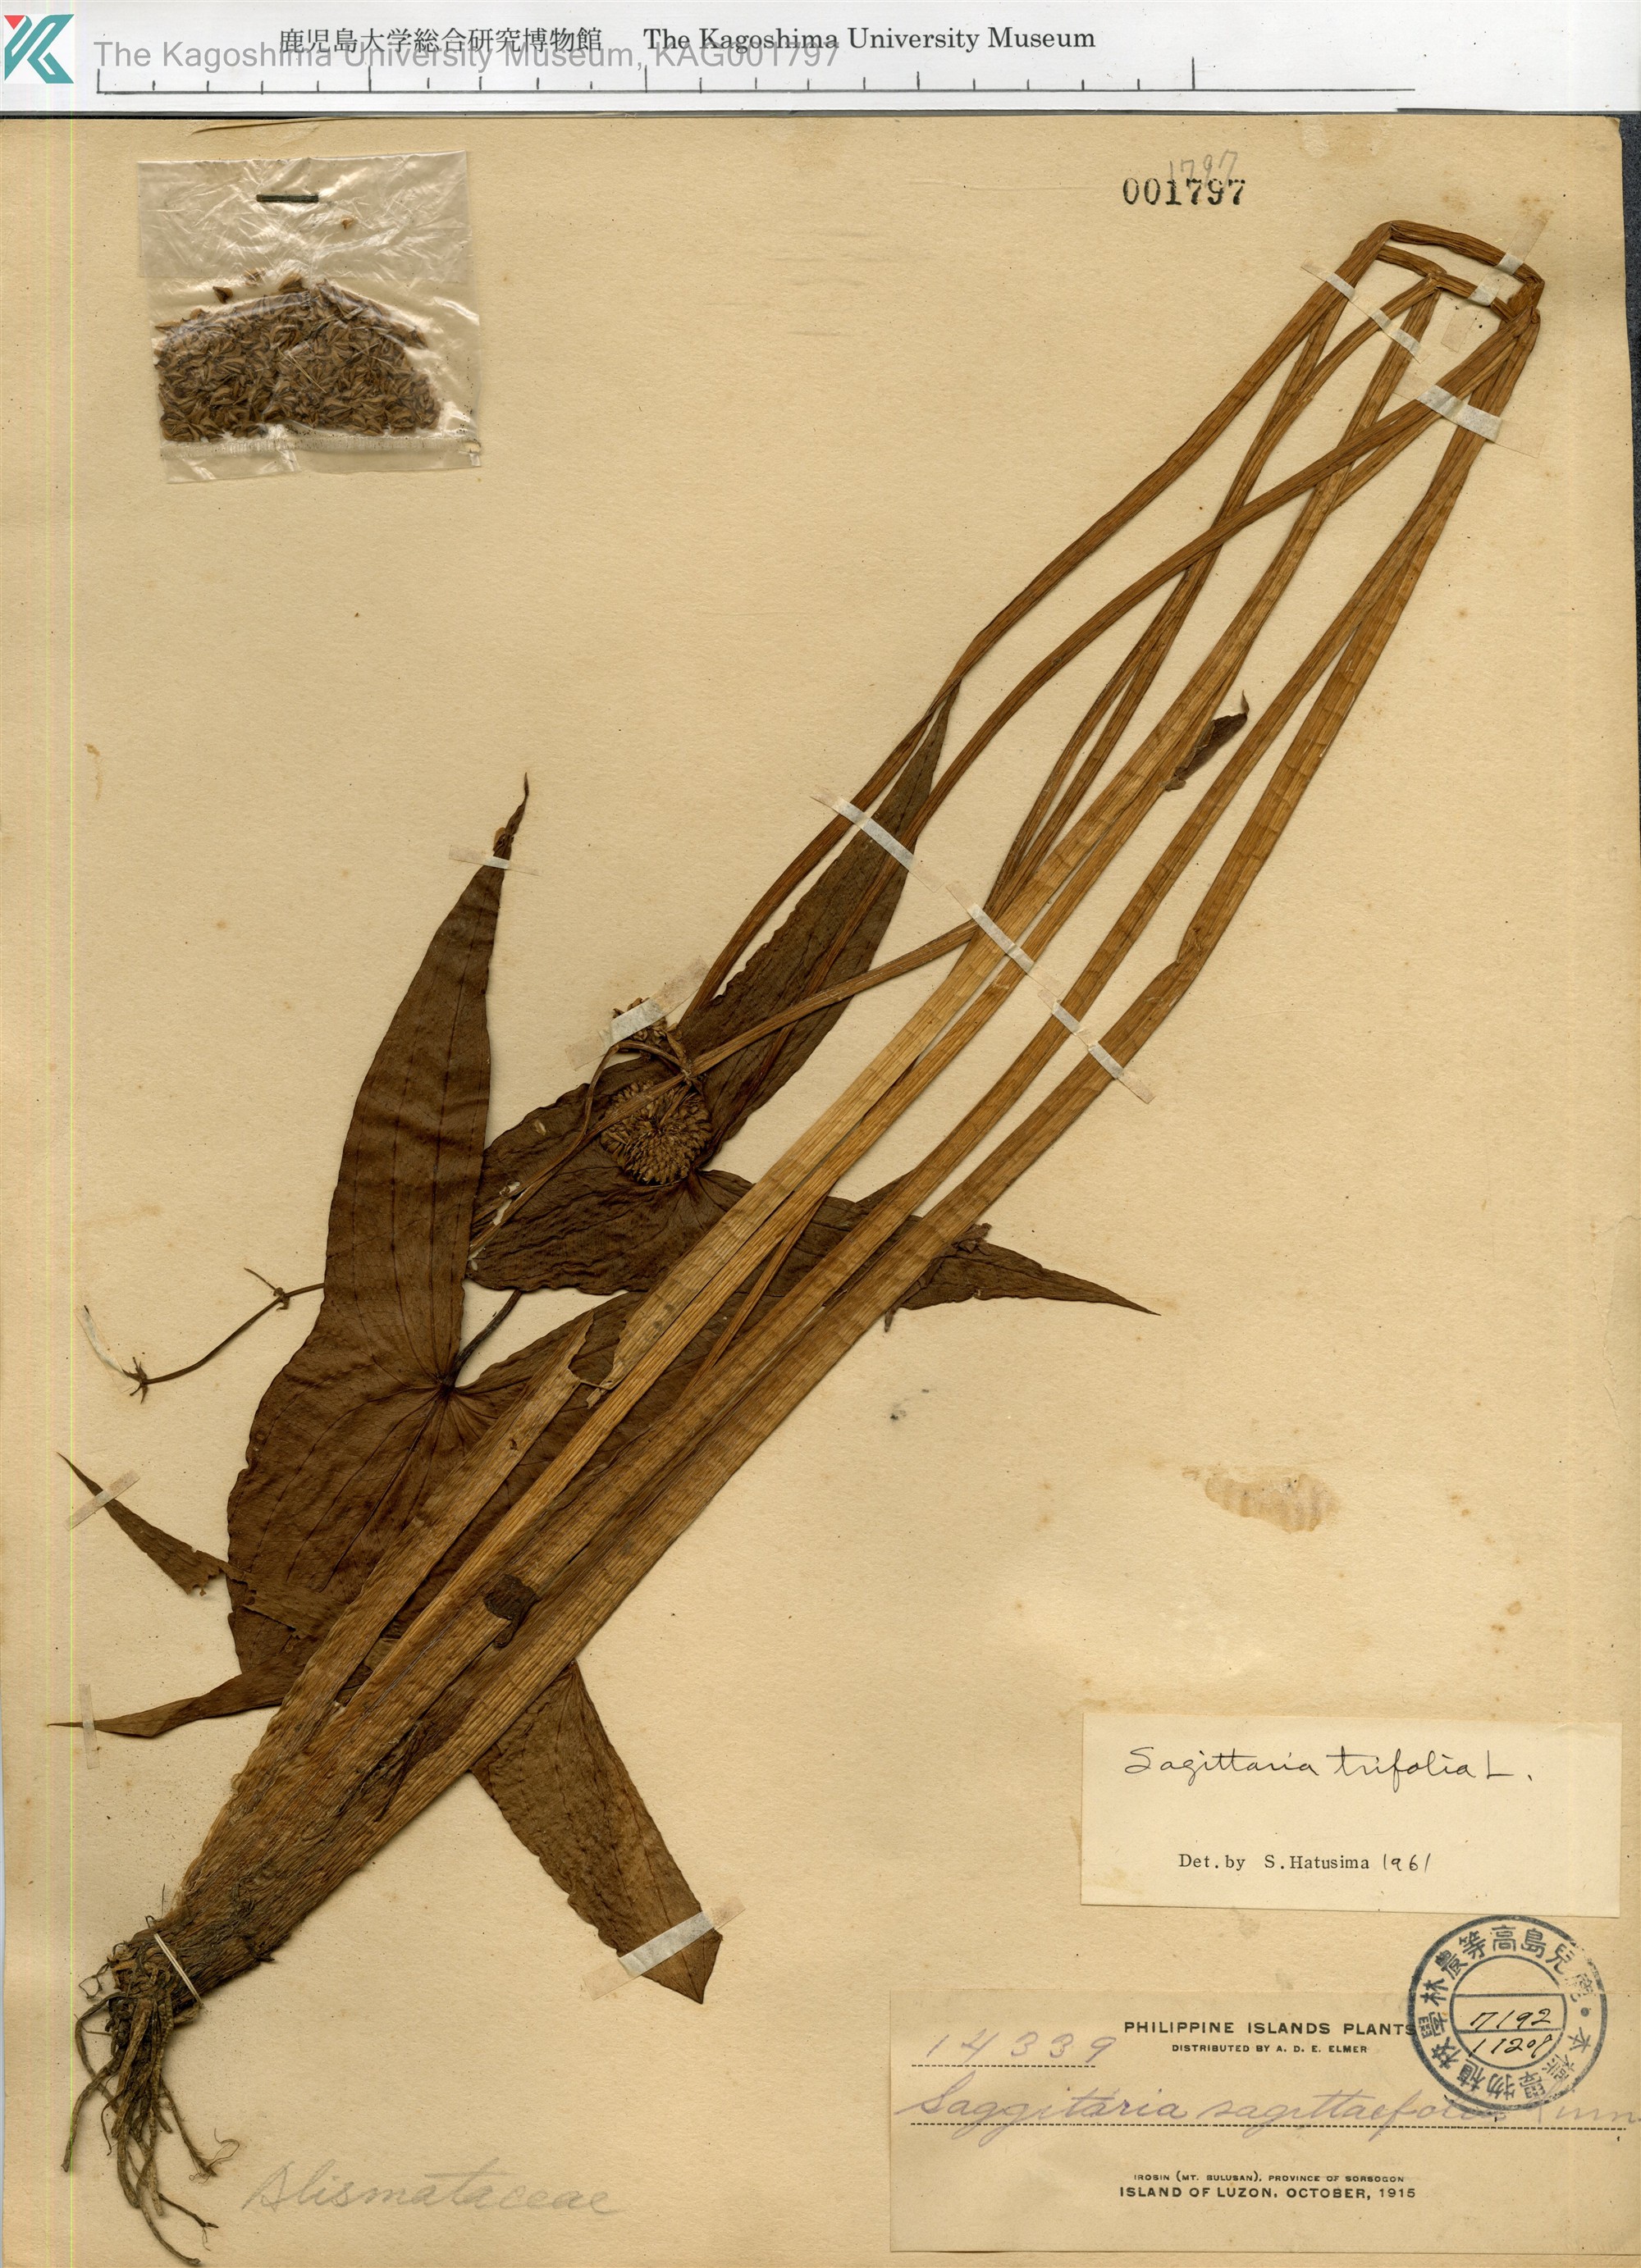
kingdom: Plantae
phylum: Tracheophyta
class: Liliopsida
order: Alismatales
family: Alismataceae
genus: Sagittaria
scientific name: Sagittaria trifolia
